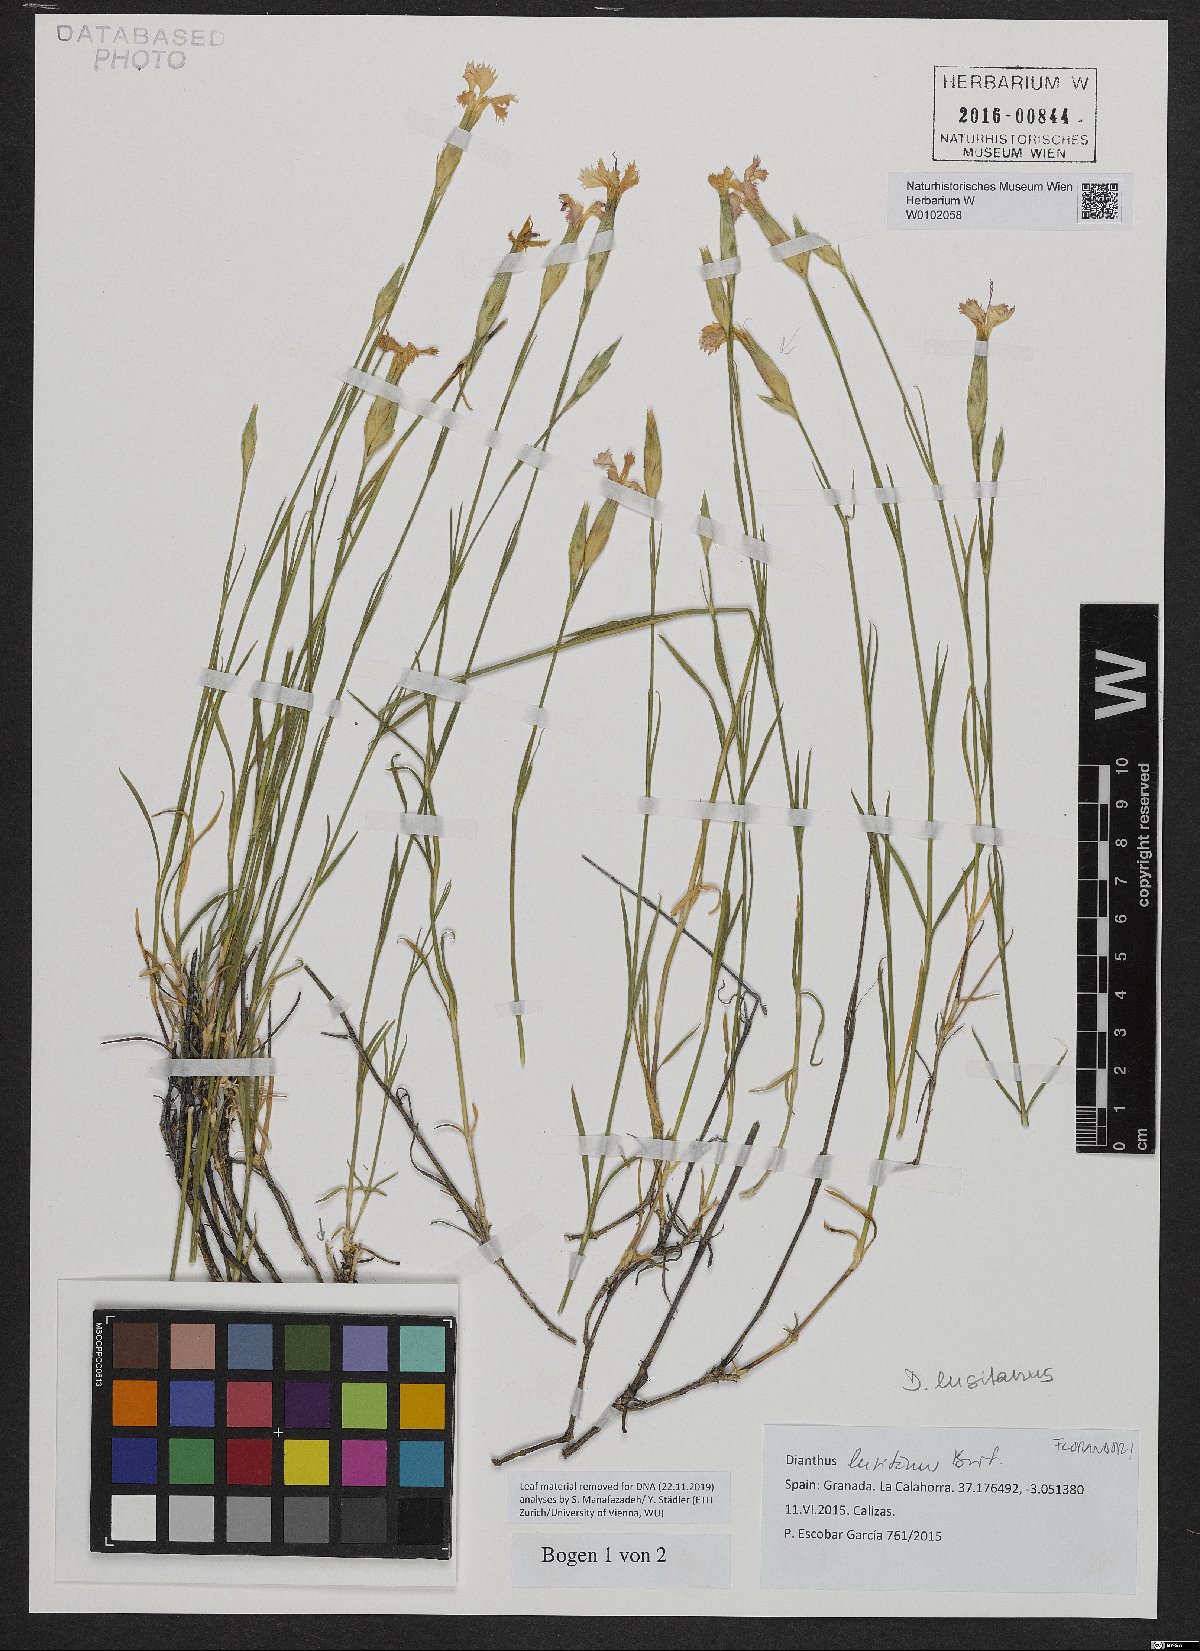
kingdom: Plantae
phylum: Tracheophyta
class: Magnoliopsida
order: Caryophyllales
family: Caryophyllaceae
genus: Dianthus
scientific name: Dianthus lusitanus
